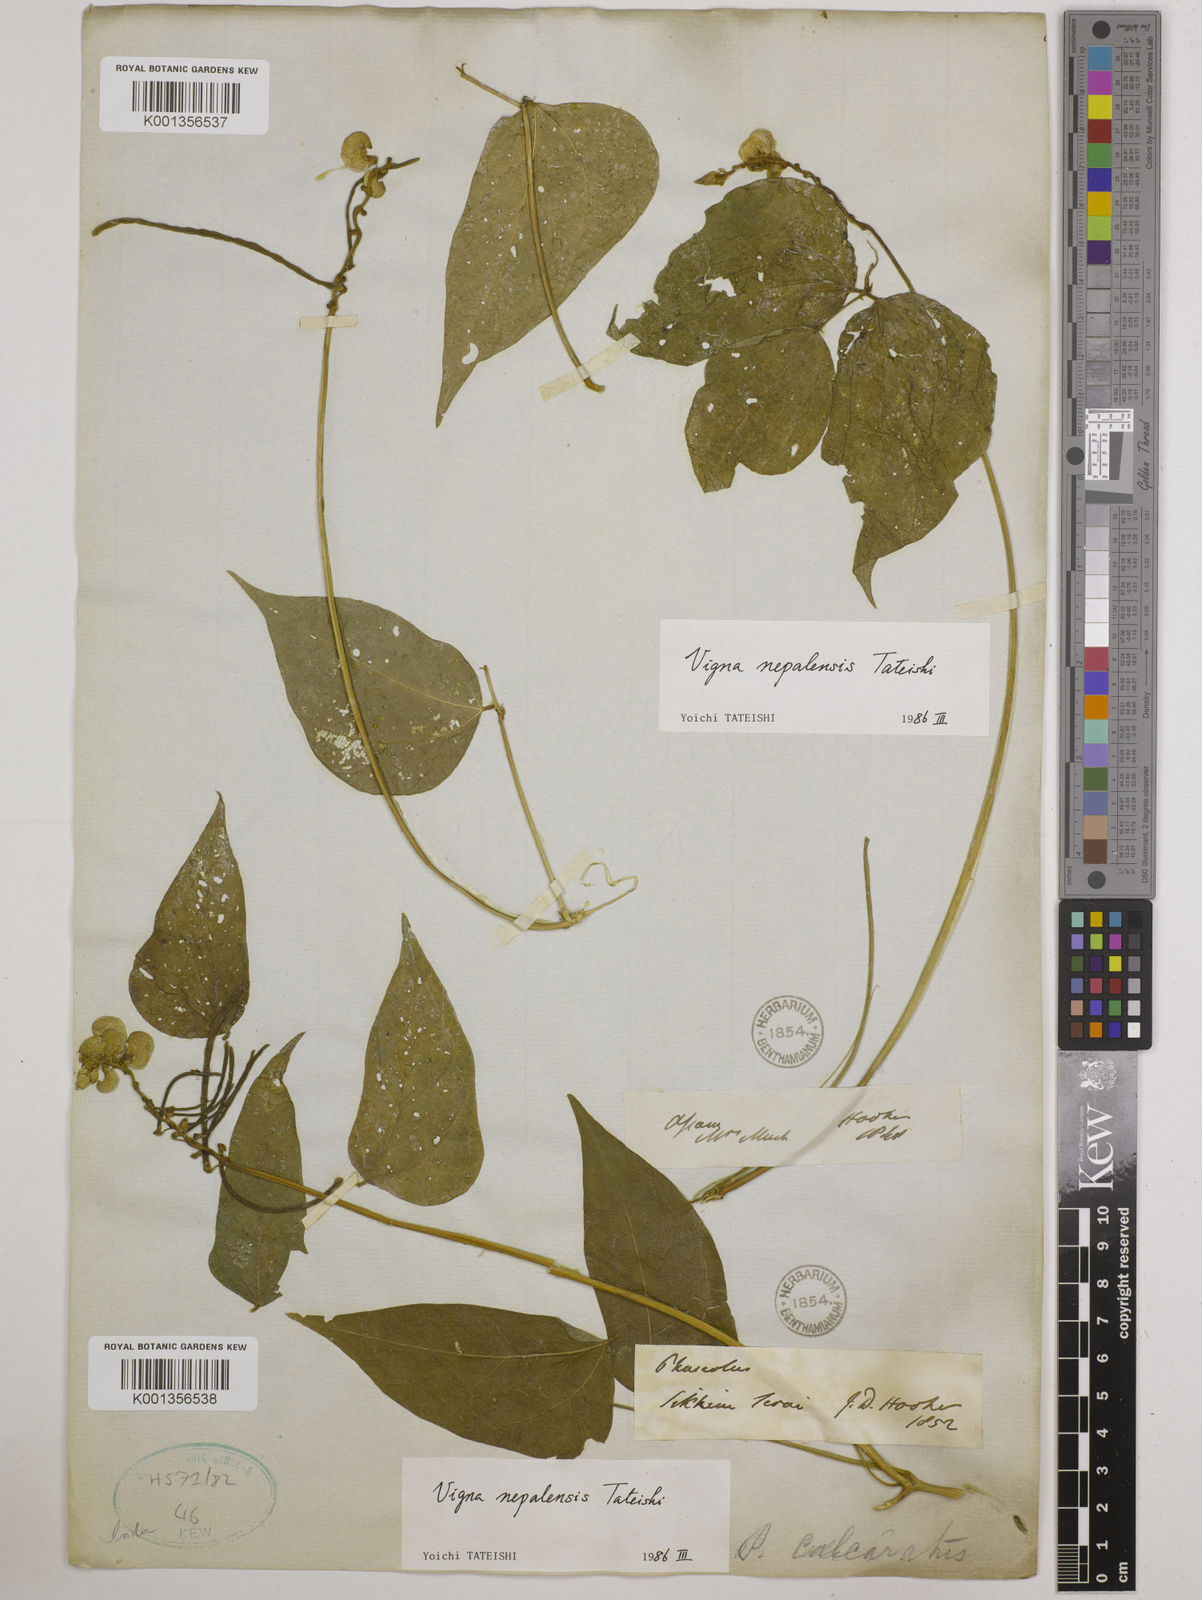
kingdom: Plantae
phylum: Tracheophyta
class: Magnoliopsida
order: Fabales
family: Fabaceae
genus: Vigna
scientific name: Vigna
